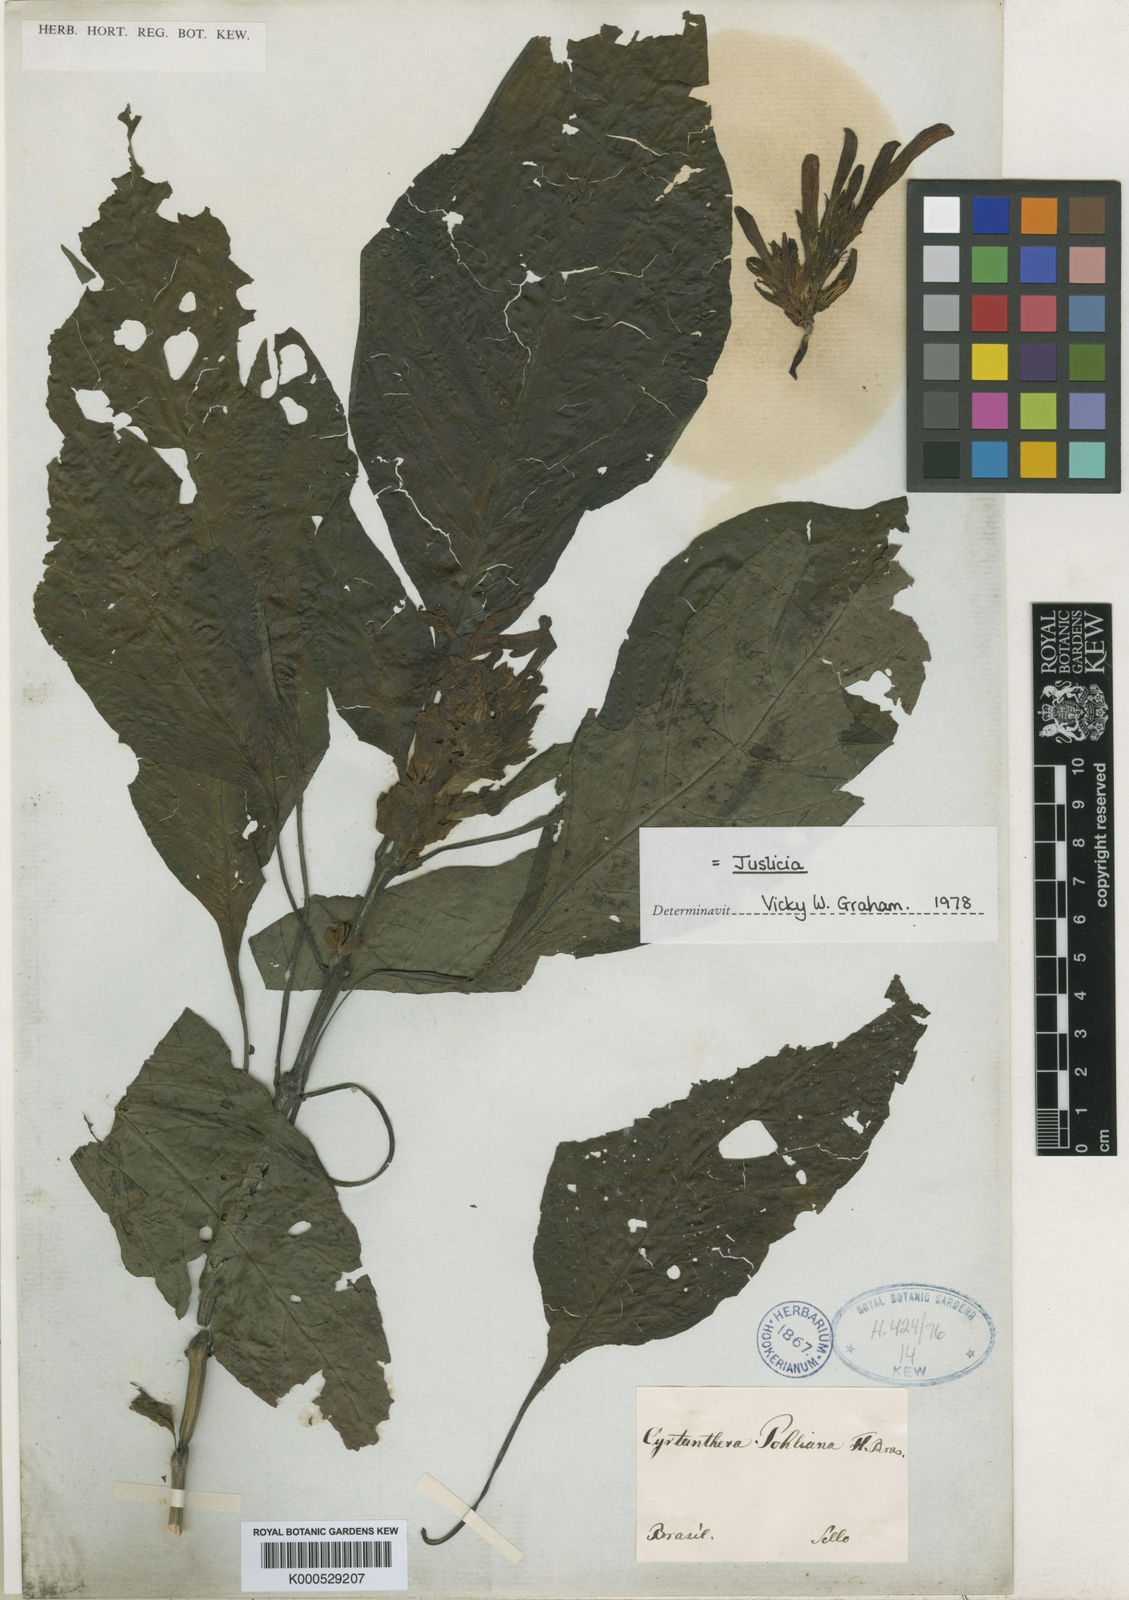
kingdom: Plantae
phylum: Tracheophyta
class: Magnoliopsida
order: Lamiales
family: Acanthaceae
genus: Justicia
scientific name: Justicia carnea
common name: Brazilian-plume
